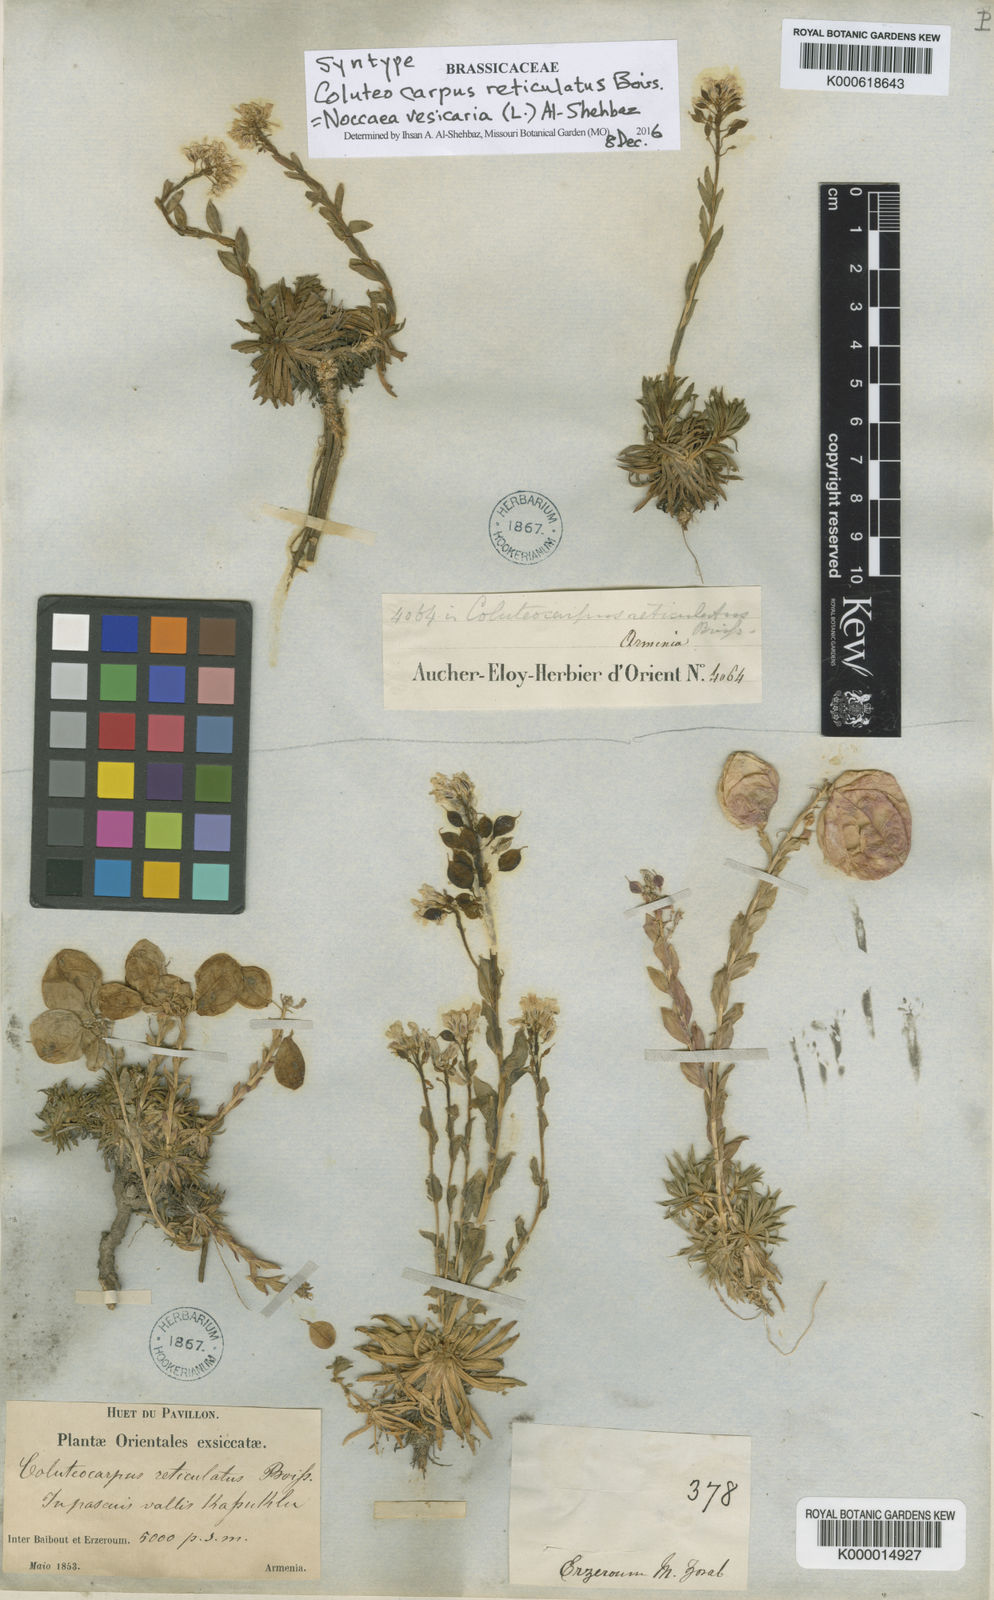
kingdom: Plantae
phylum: Tracheophyta
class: Magnoliopsida
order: Brassicales
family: Brassicaceae
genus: Noccaea
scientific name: Noccaea vesicaria
